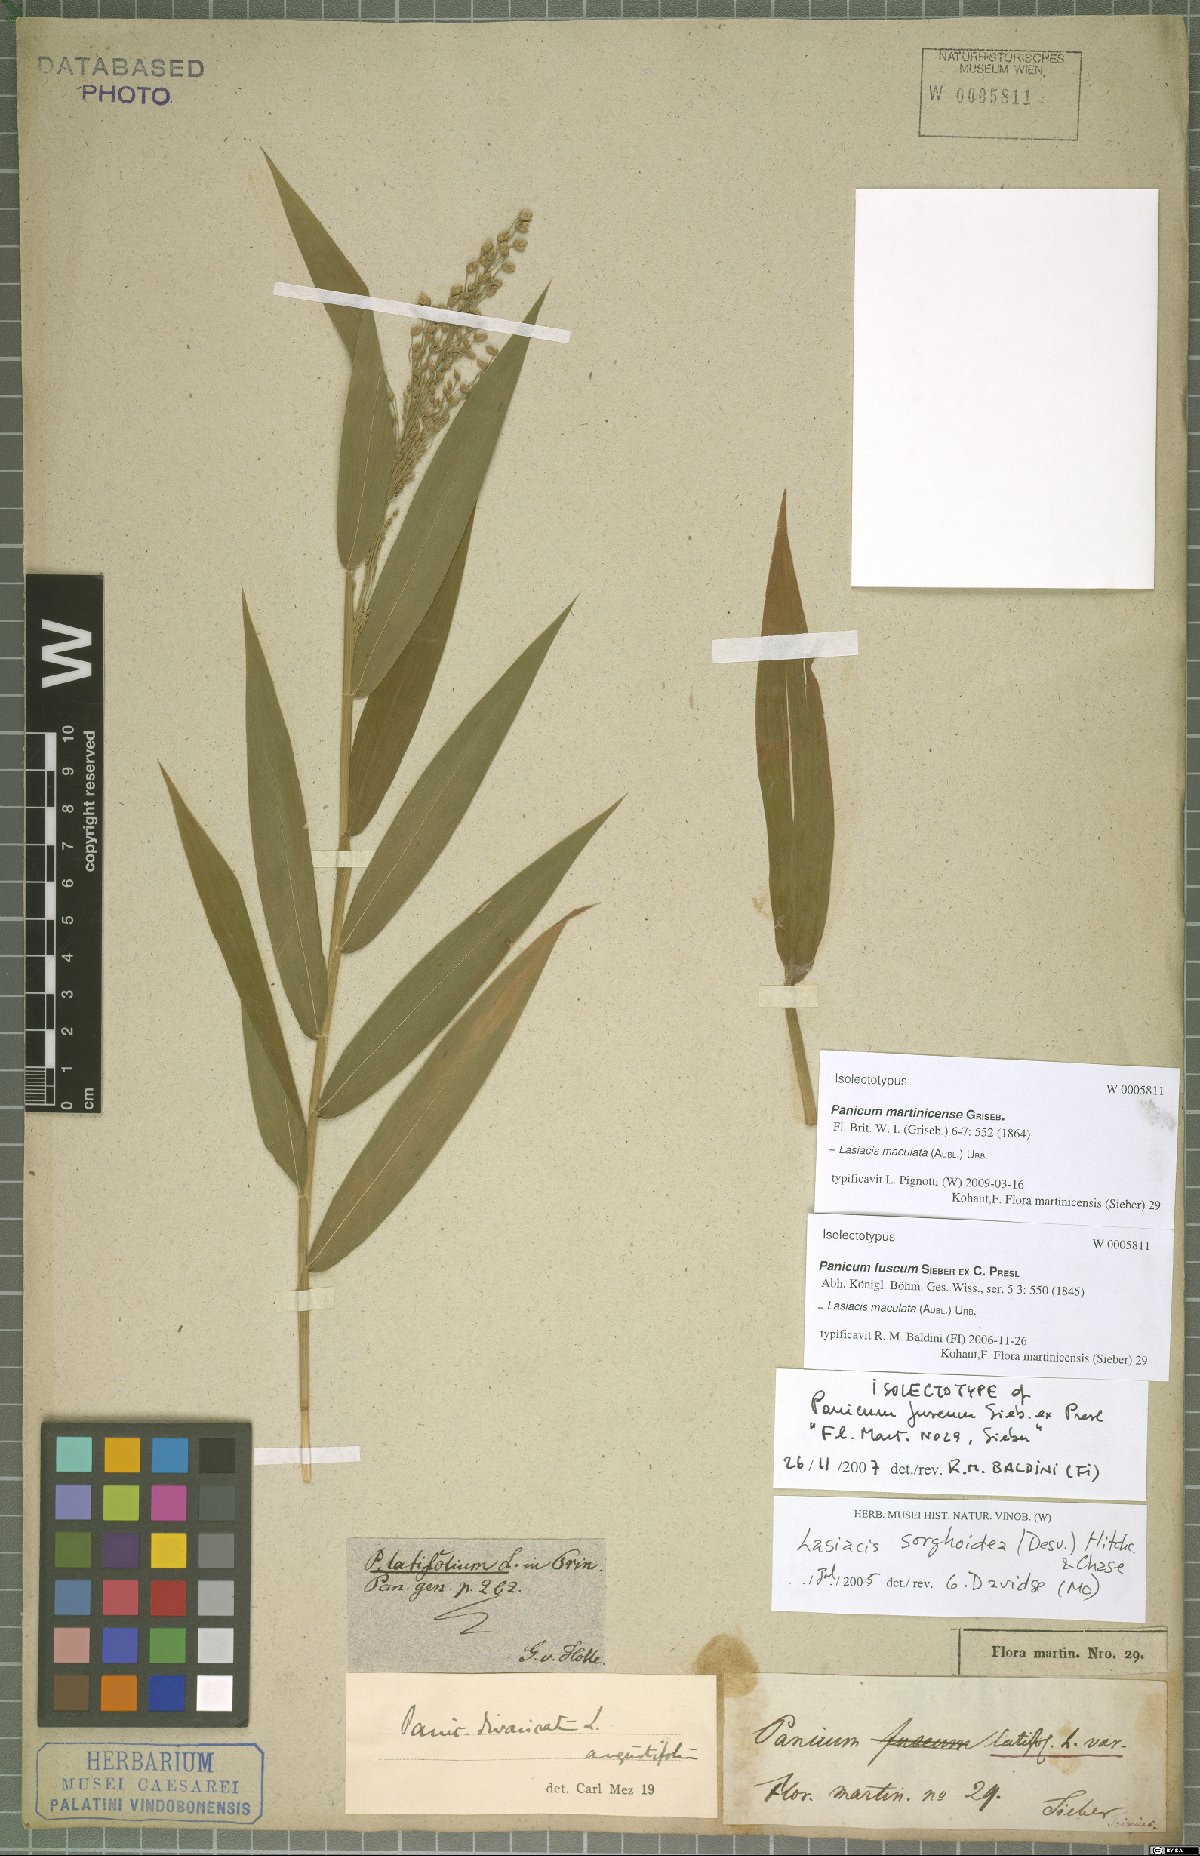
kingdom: Plantae
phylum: Tracheophyta
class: Liliopsida
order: Poales
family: Poaceae
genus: Lasiacis
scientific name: Lasiacis maculata
